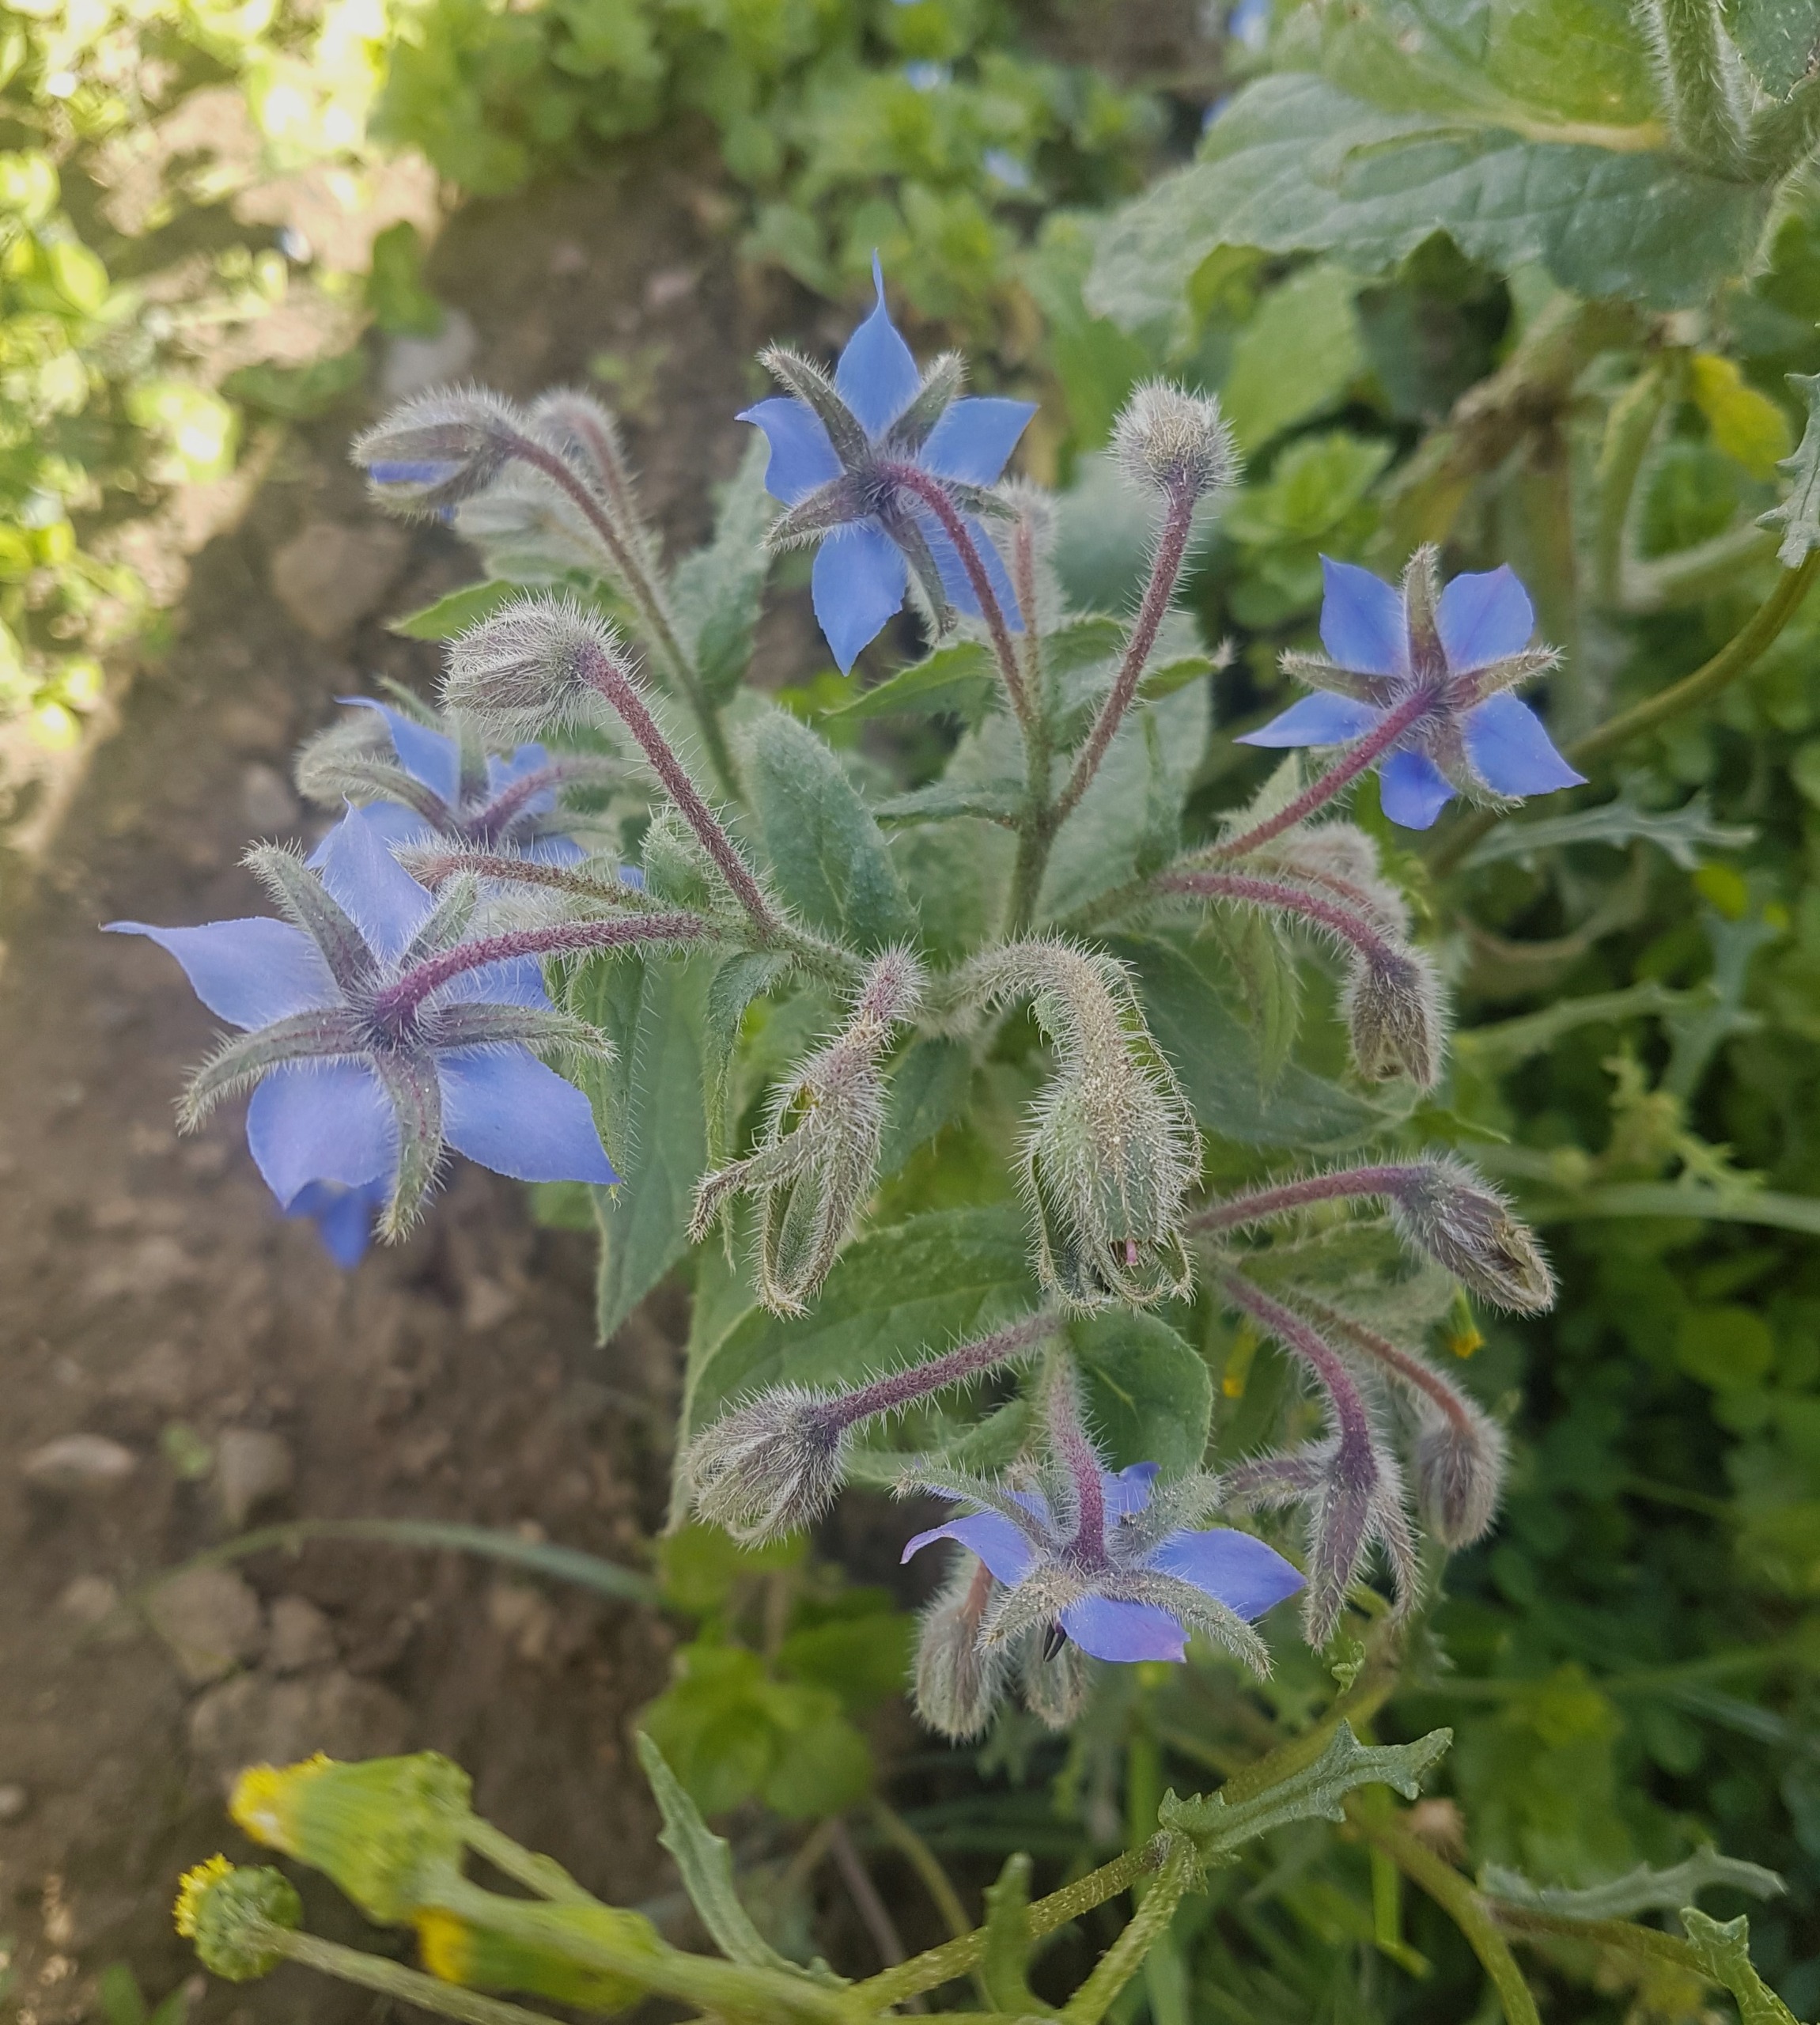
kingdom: Plantae
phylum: Tracheophyta
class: Magnoliopsida
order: Boraginales
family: Boraginaceae
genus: Borago
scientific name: Borago officinalis
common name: Hjulkrone
